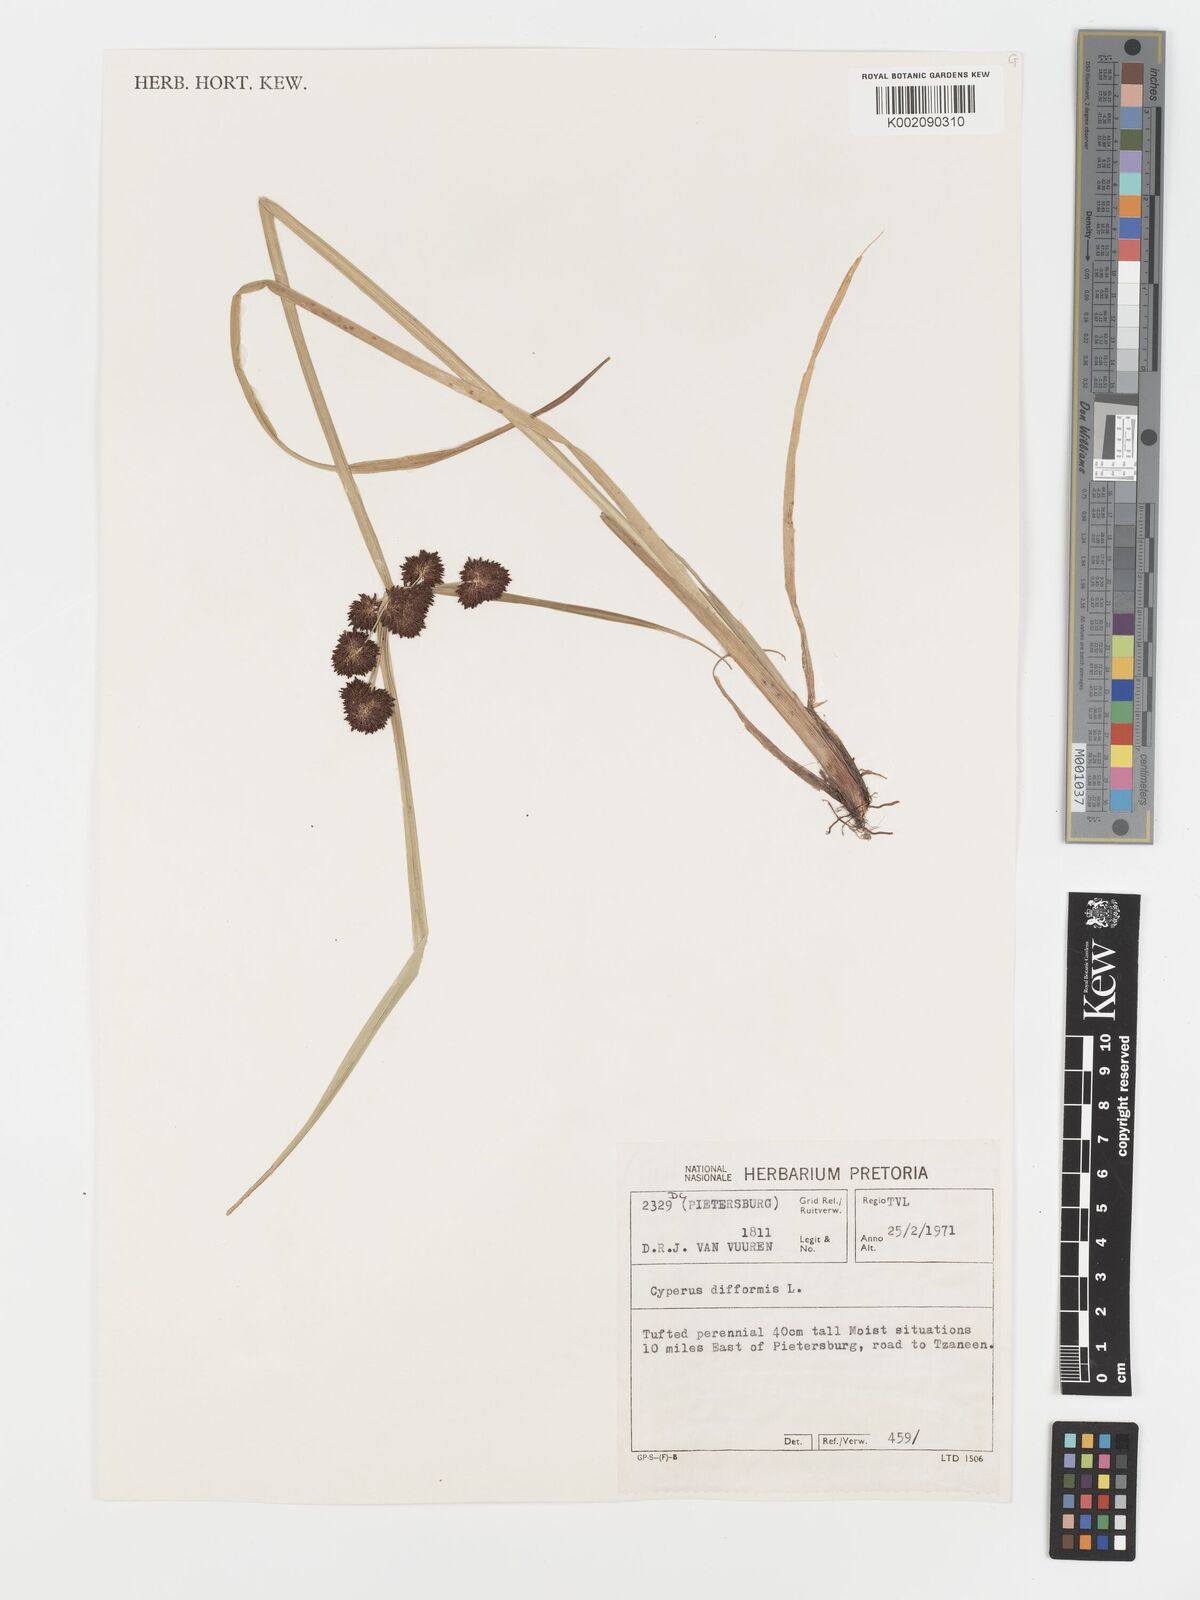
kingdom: Plantae
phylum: Tracheophyta
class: Liliopsida
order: Poales
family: Cyperaceae
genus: Cyperus
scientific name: Cyperus difformis
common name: Variable flatsedge
